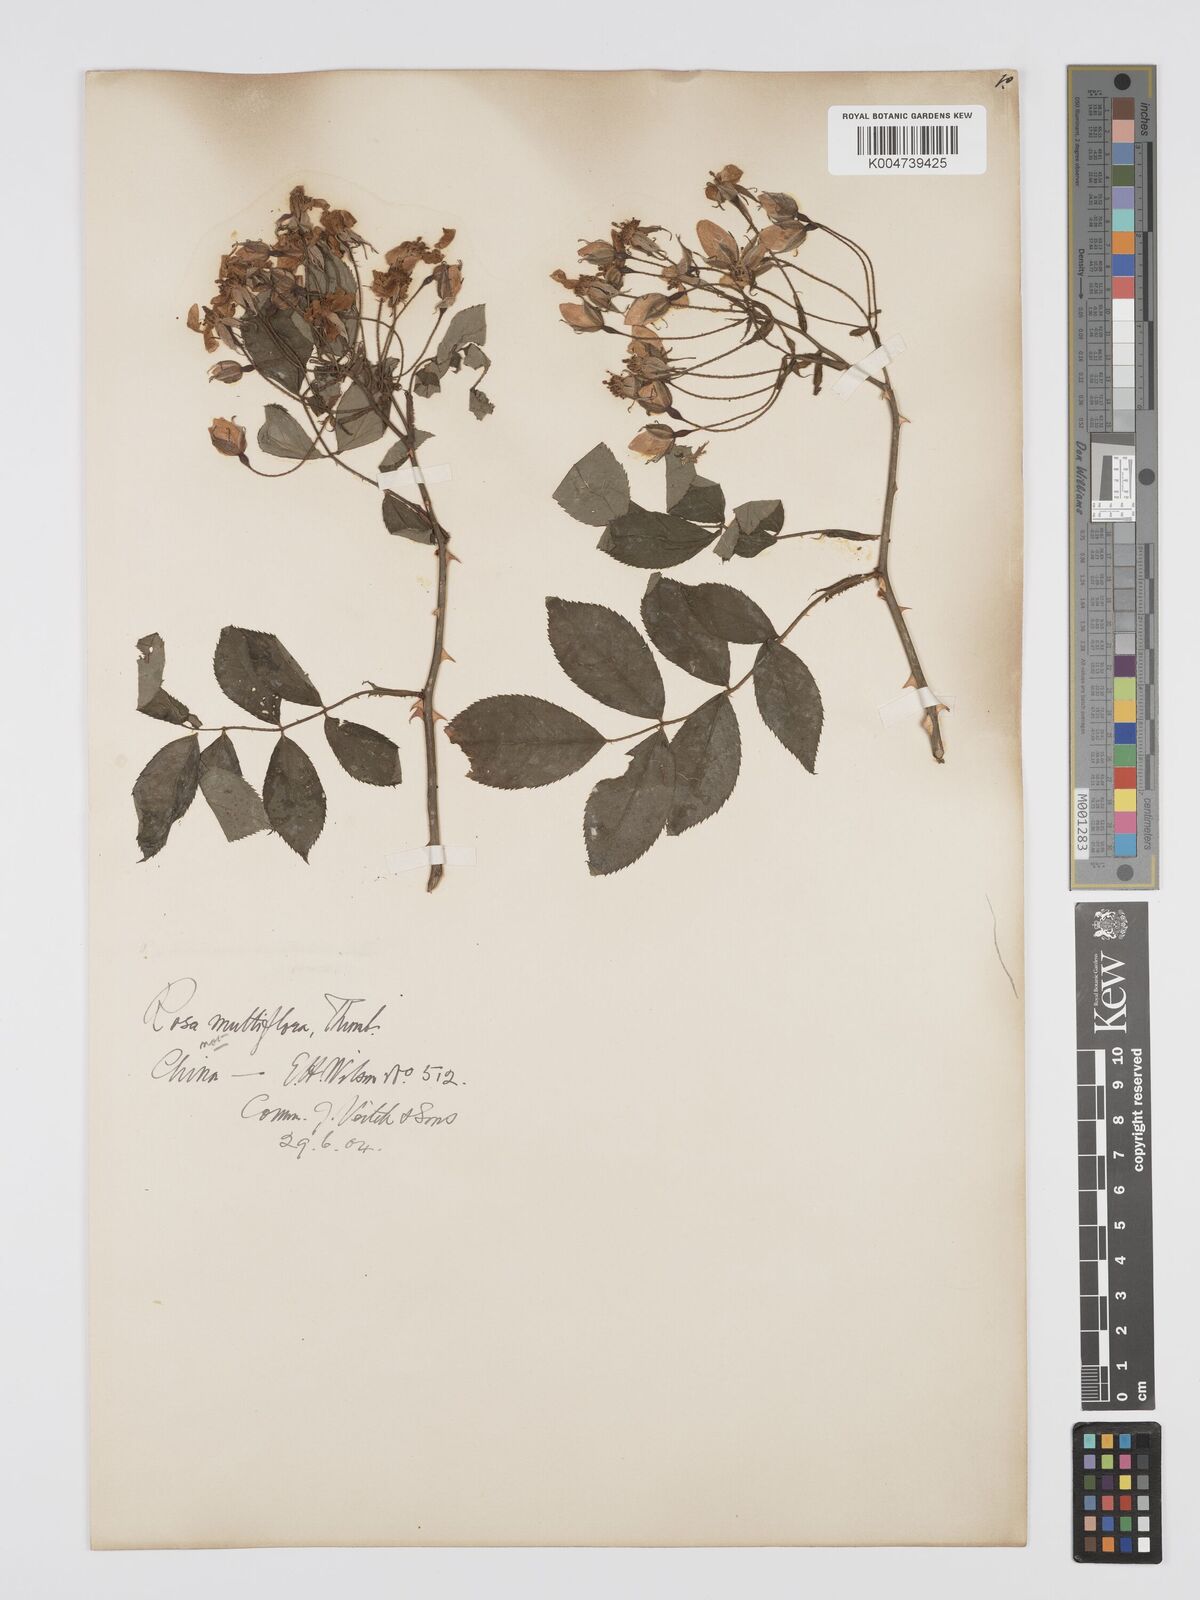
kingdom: Plantae
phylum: Tracheophyta
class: Magnoliopsida
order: Rosales
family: Rosaceae
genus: Rosa
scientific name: Rosa multiflora
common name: Multiflora rose
